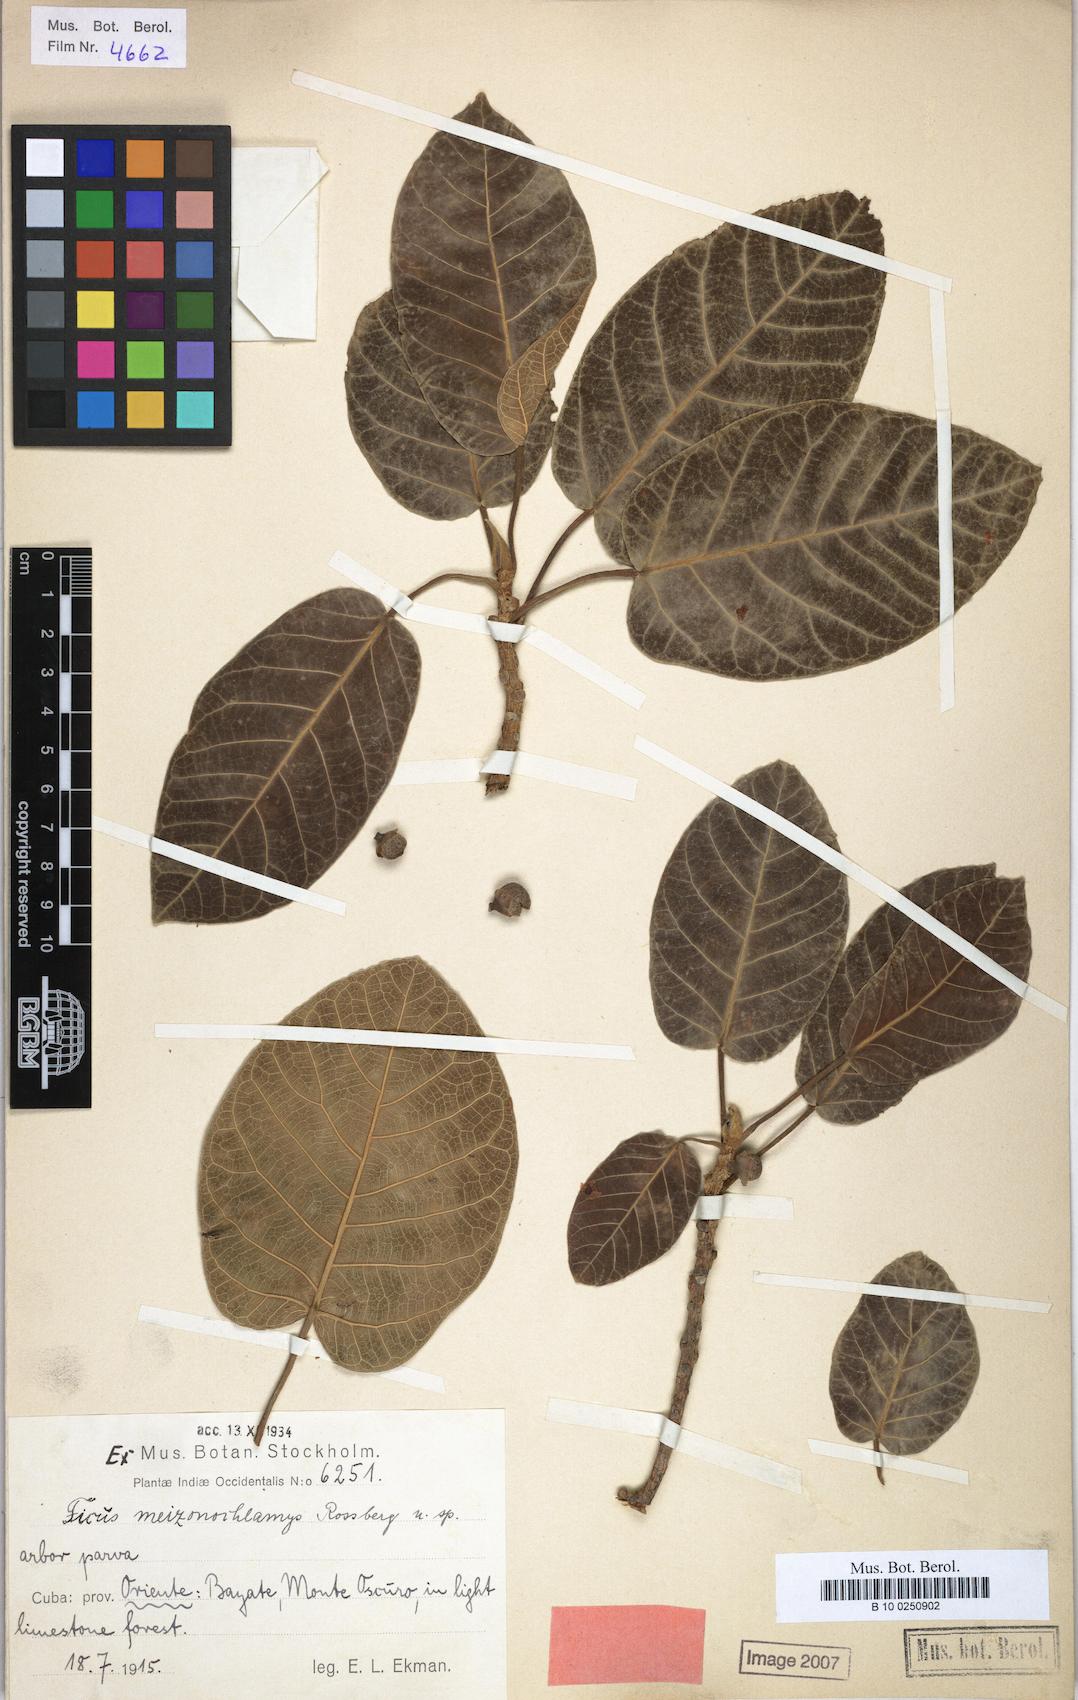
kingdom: Plantae
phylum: Tracheophyta
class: Magnoliopsida
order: Rosales
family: Moraceae
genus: Ficus
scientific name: Ficus membranacea
